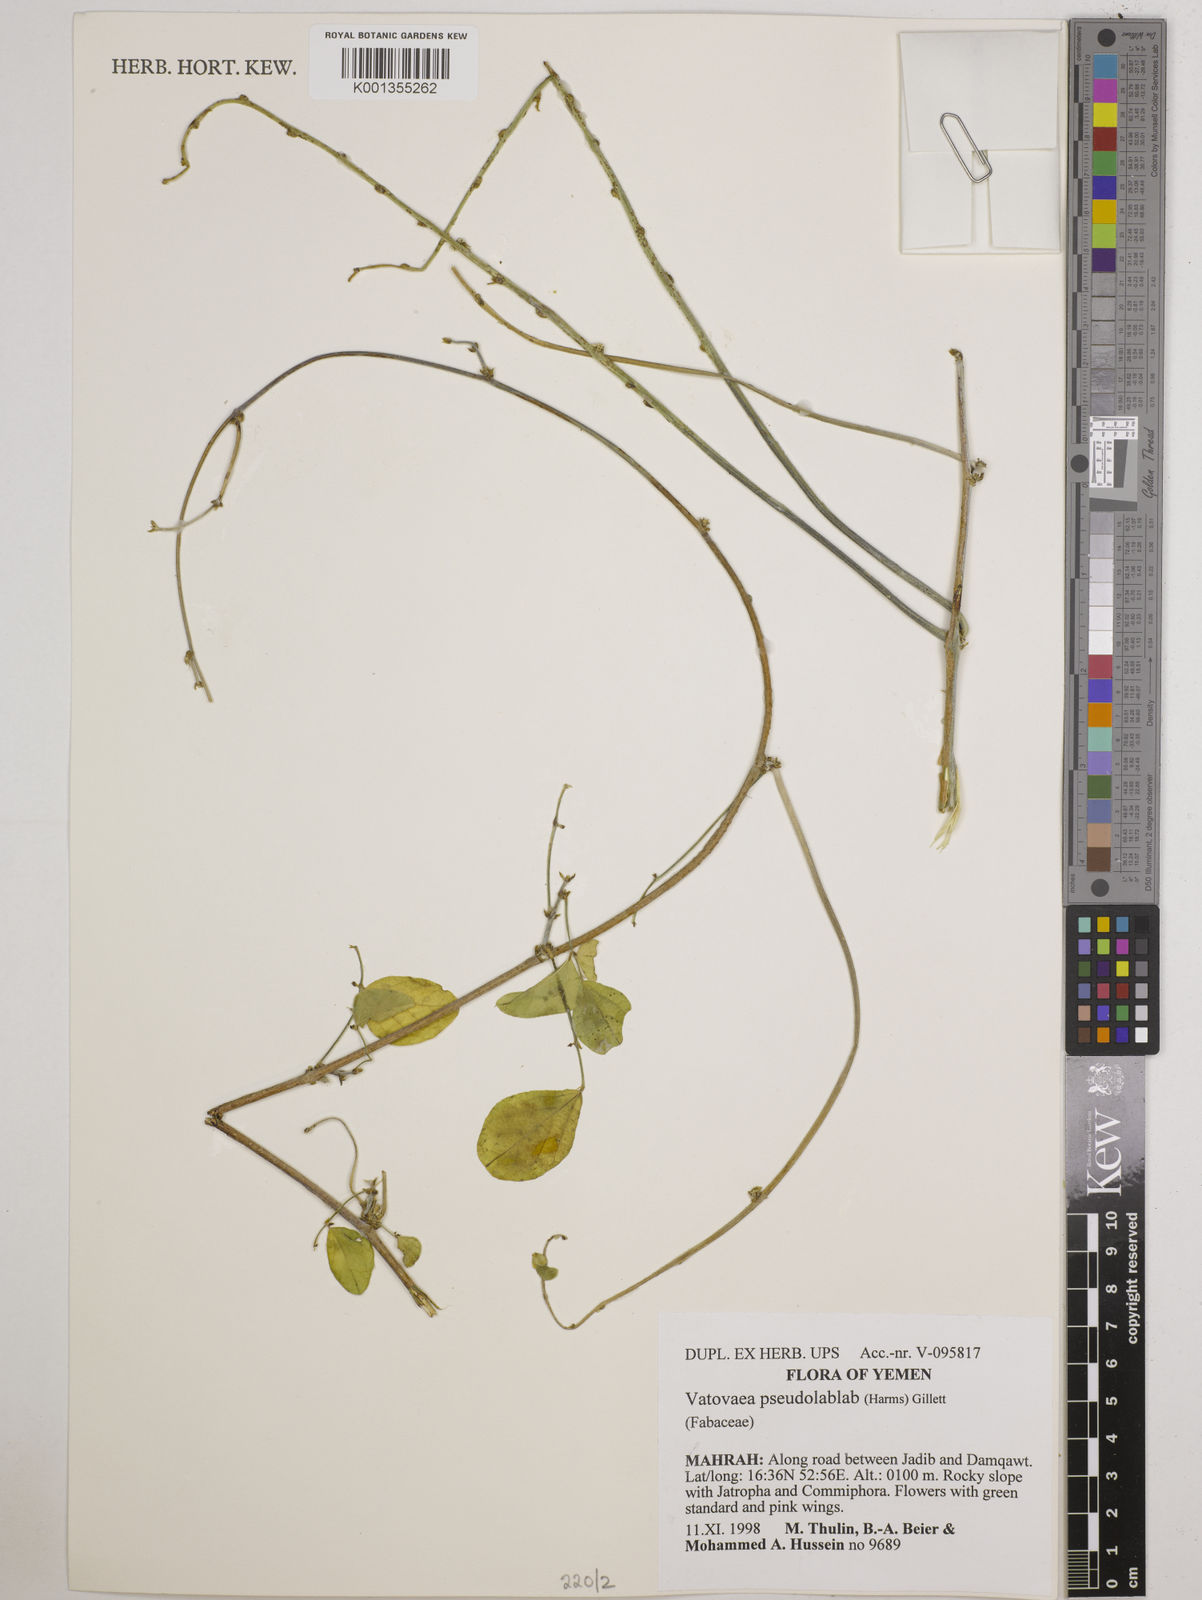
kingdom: Plantae
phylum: Tracheophyta
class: Magnoliopsida
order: Fabales
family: Fabaceae
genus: Vatovaea
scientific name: Vatovaea pseudolablab
